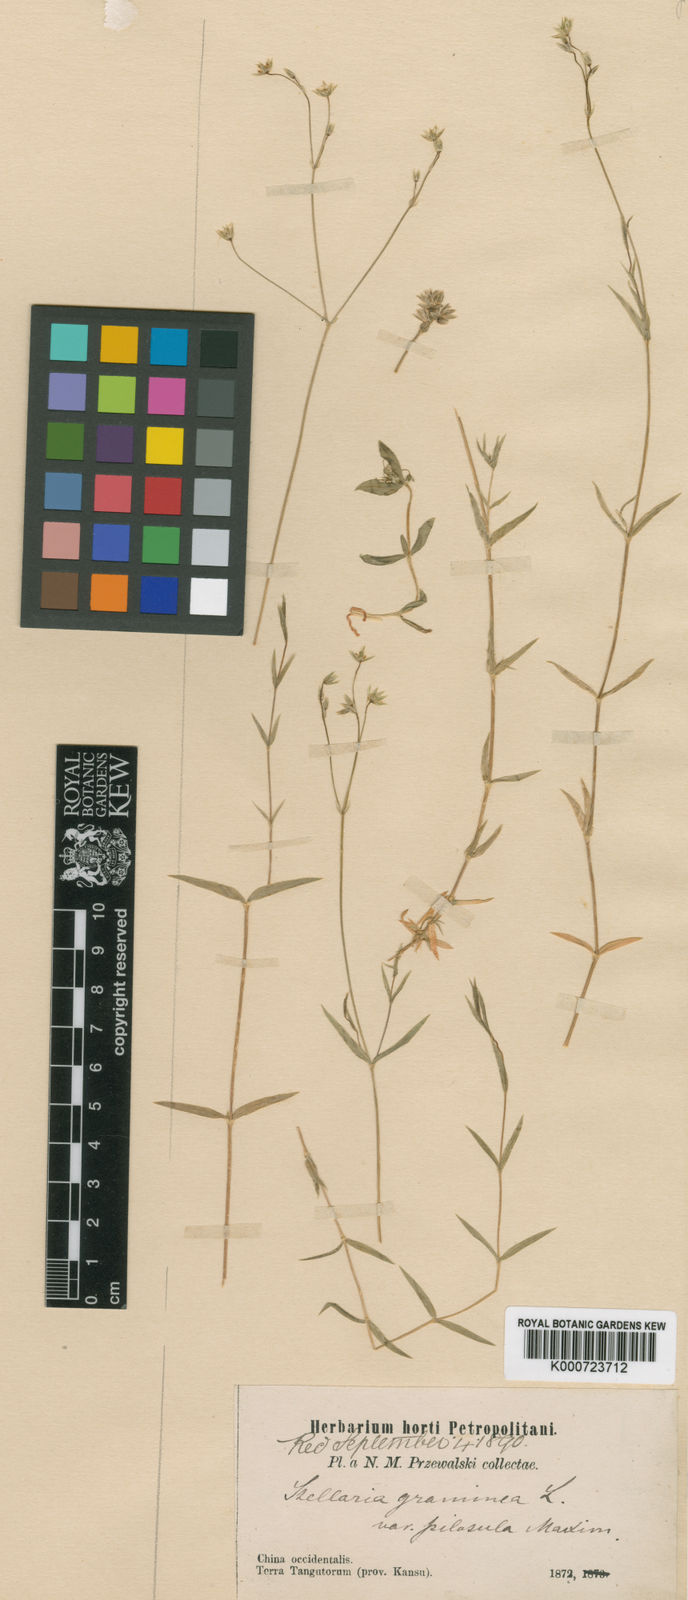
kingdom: Plantae
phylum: Tracheophyta
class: Magnoliopsida
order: Caryophyllales
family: Caryophyllaceae
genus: Stellaria
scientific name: Stellaria graminea
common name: Grass-like starwort
